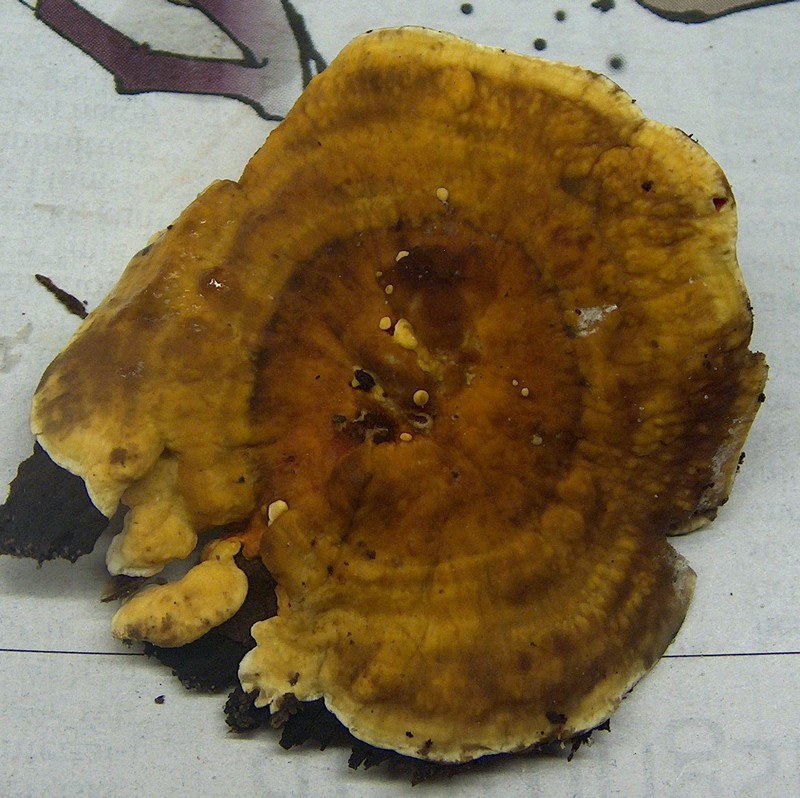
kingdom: Fungi
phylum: Basidiomycota
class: Agaricomycetes
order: Russulales
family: Stereaceae
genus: Stereum
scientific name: Stereum subtomentosum
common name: smuk lædersvamp
